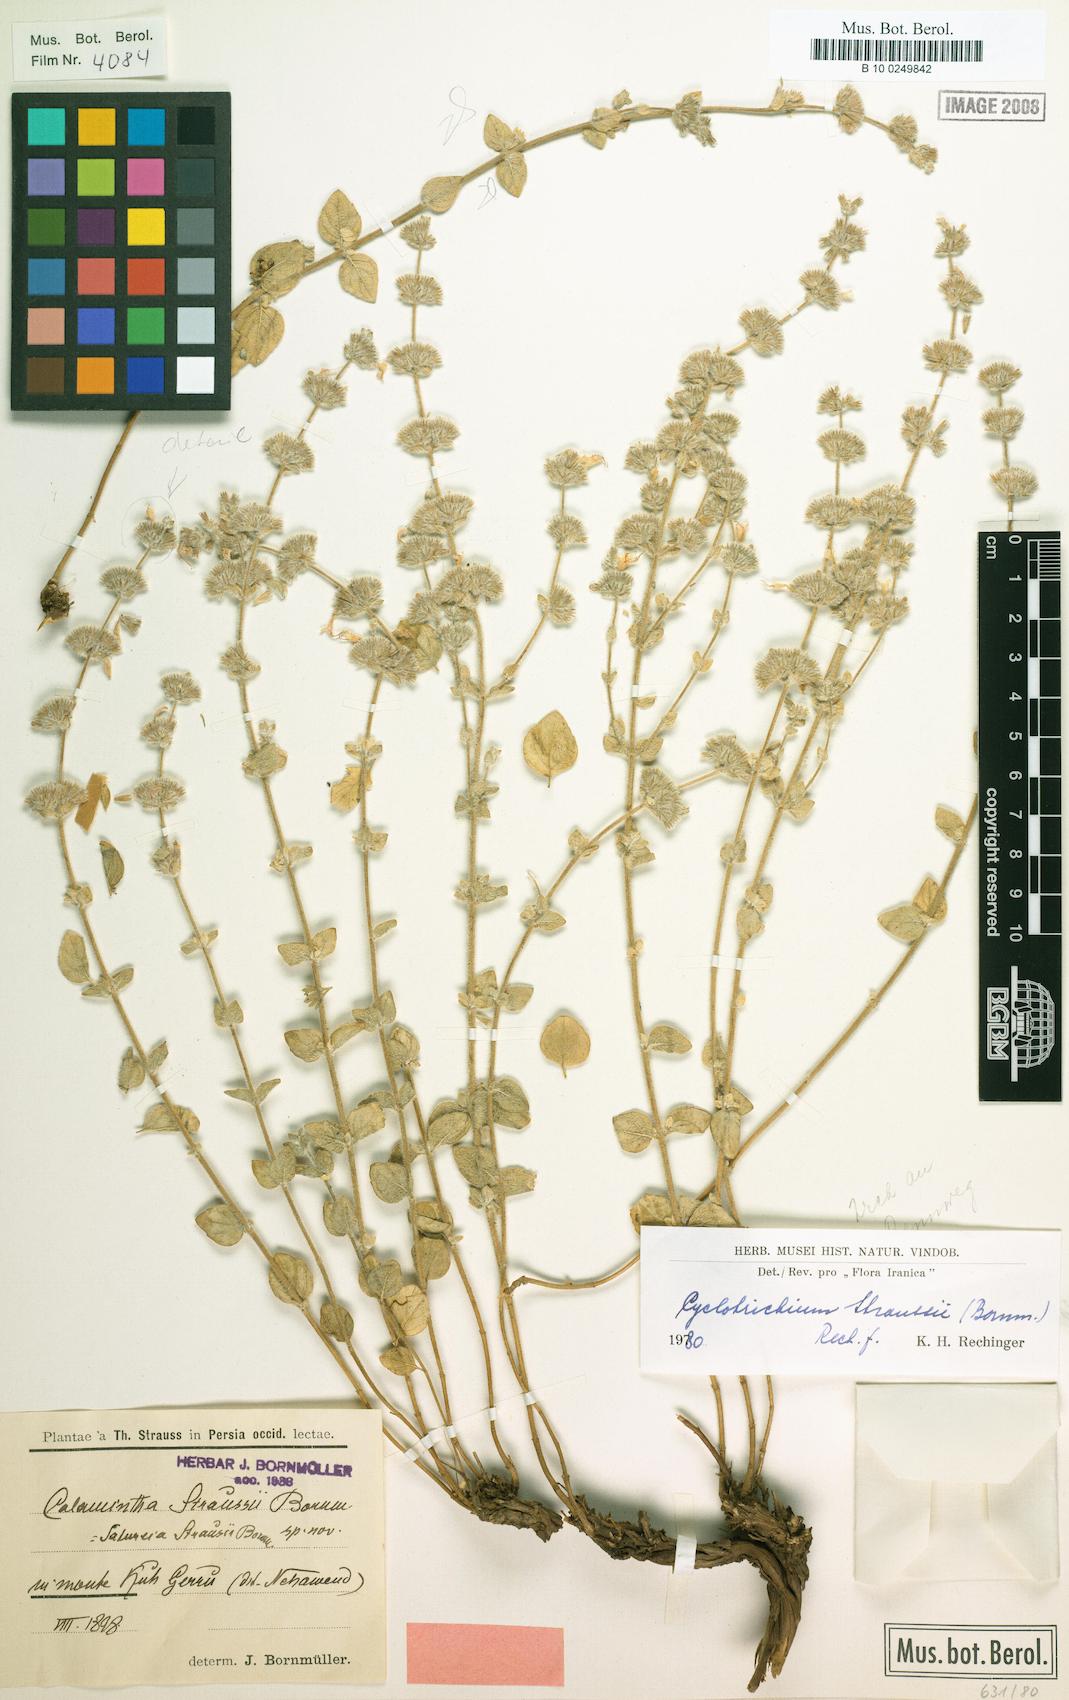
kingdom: Plantae
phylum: Tracheophyta
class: Magnoliopsida
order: Lamiales
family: Lamiaceae
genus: Cyclotrichium
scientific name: Cyclotrichium straussii
